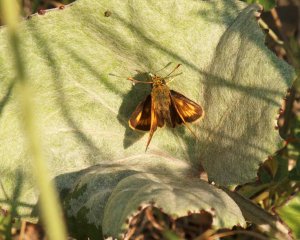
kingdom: Animalia
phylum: Arthropoda
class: Insecta
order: Lepidoptera
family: Hesperiidae
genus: Polites
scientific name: Polites coras
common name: Peck's Skipper
